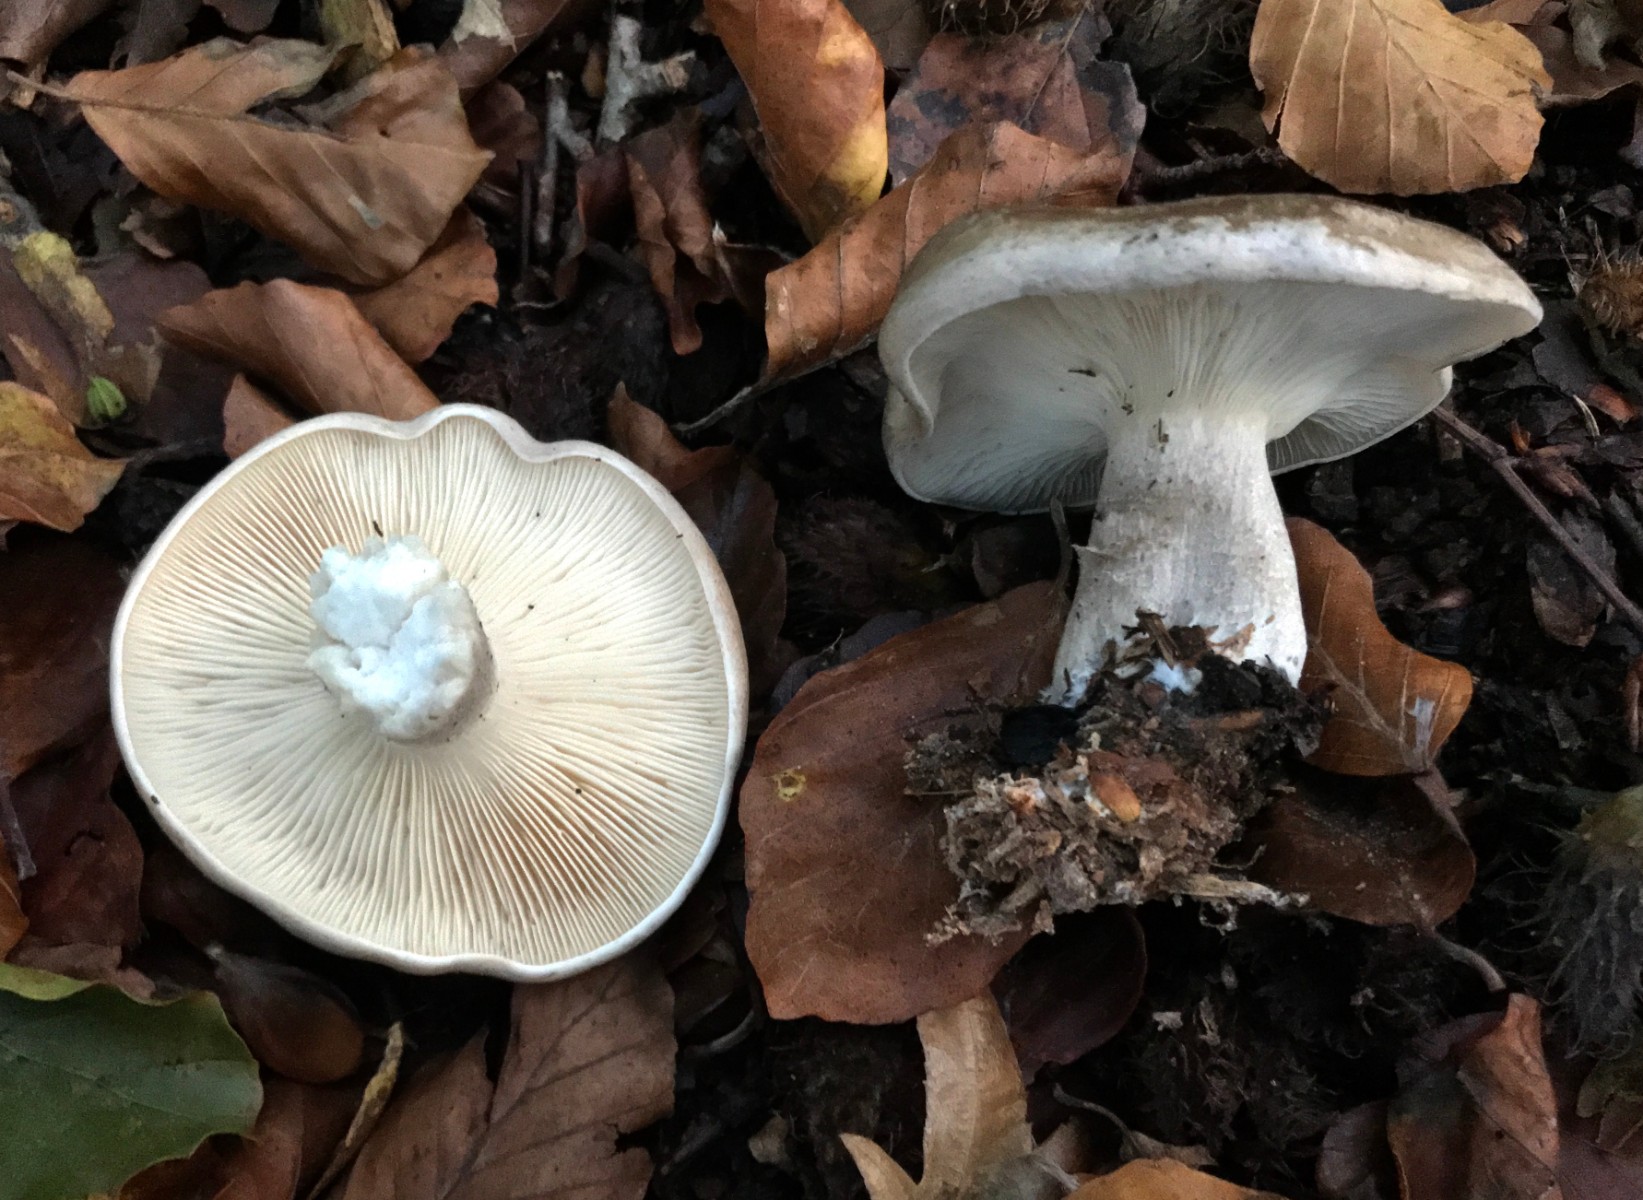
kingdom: Fungi
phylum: Basidiomycota
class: Agaricomycetes
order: Agaricales
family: Tricholomataceae
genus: Clitocybe
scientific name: Clitocybe nebularis
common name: tåge-tragthat
